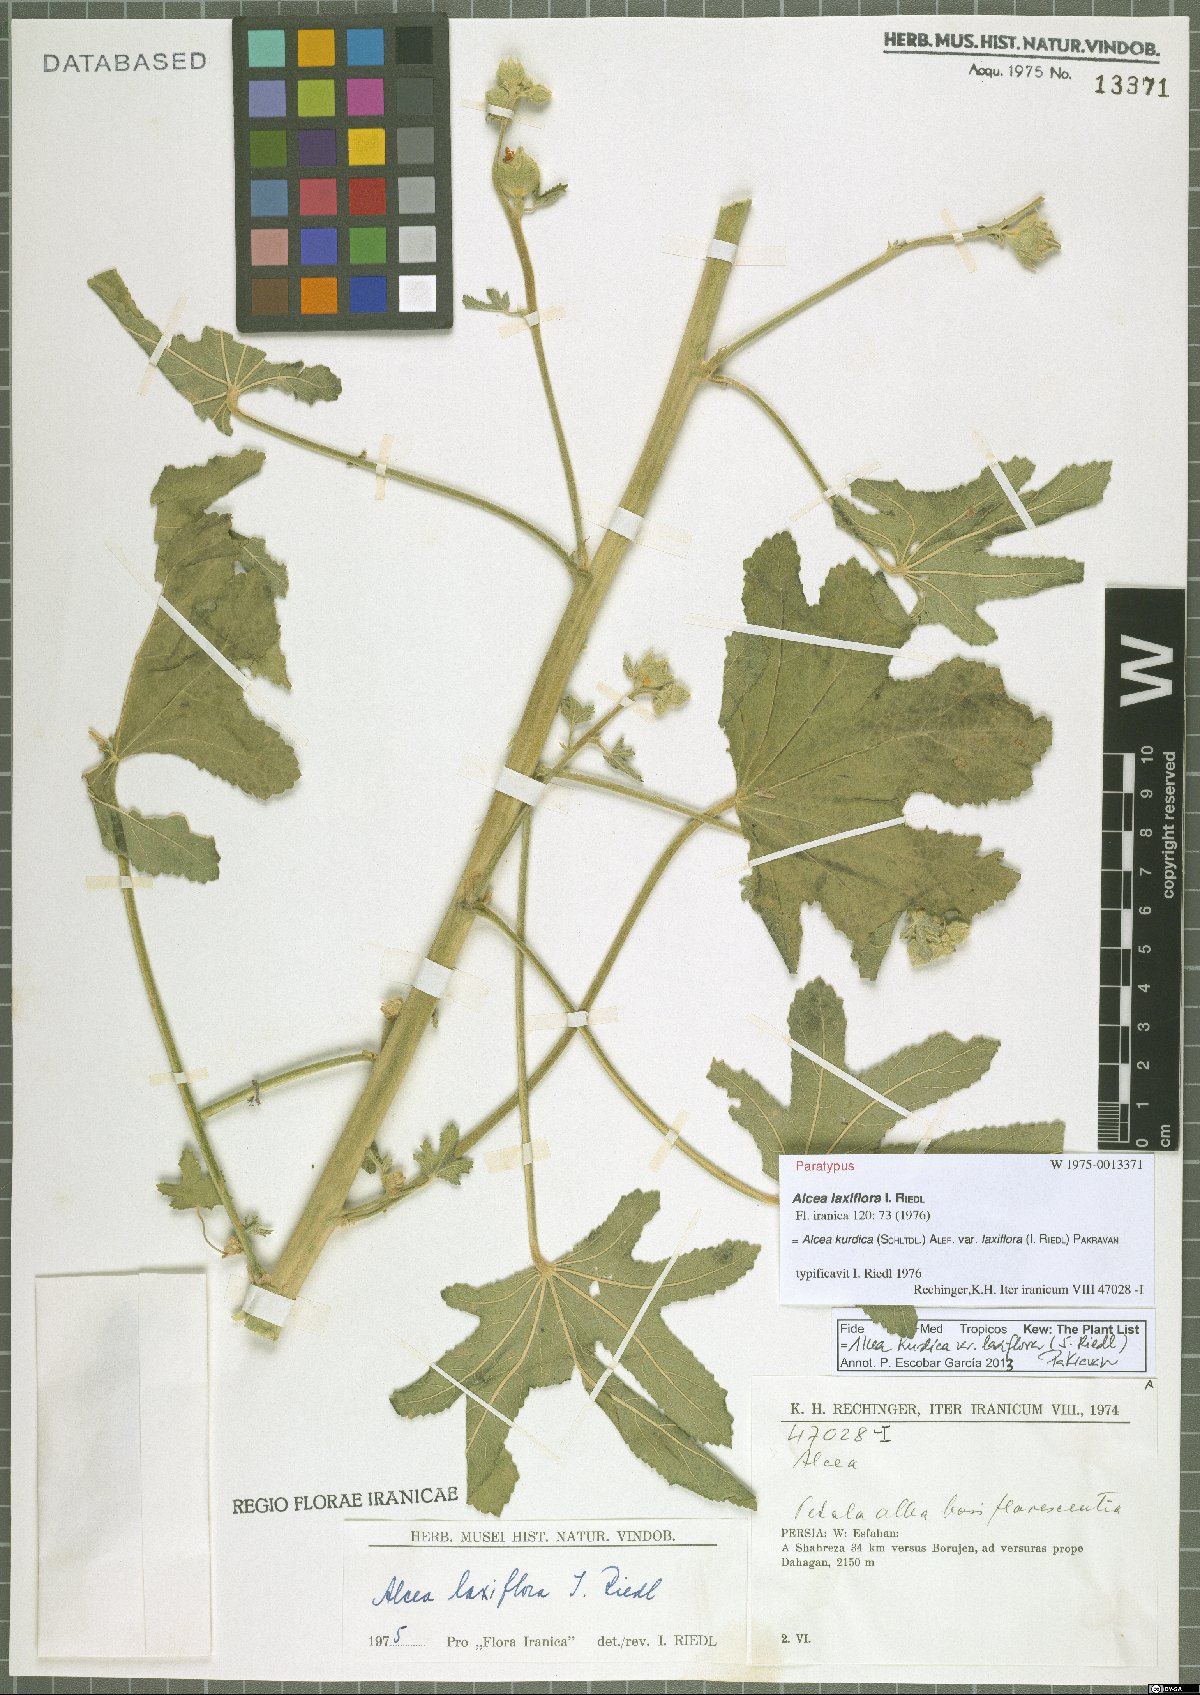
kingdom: Plantae
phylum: Tracheophyta
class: Magnoliopsida
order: Malvales
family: Malvaceae
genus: Alcea
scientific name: Alcea kurdica
